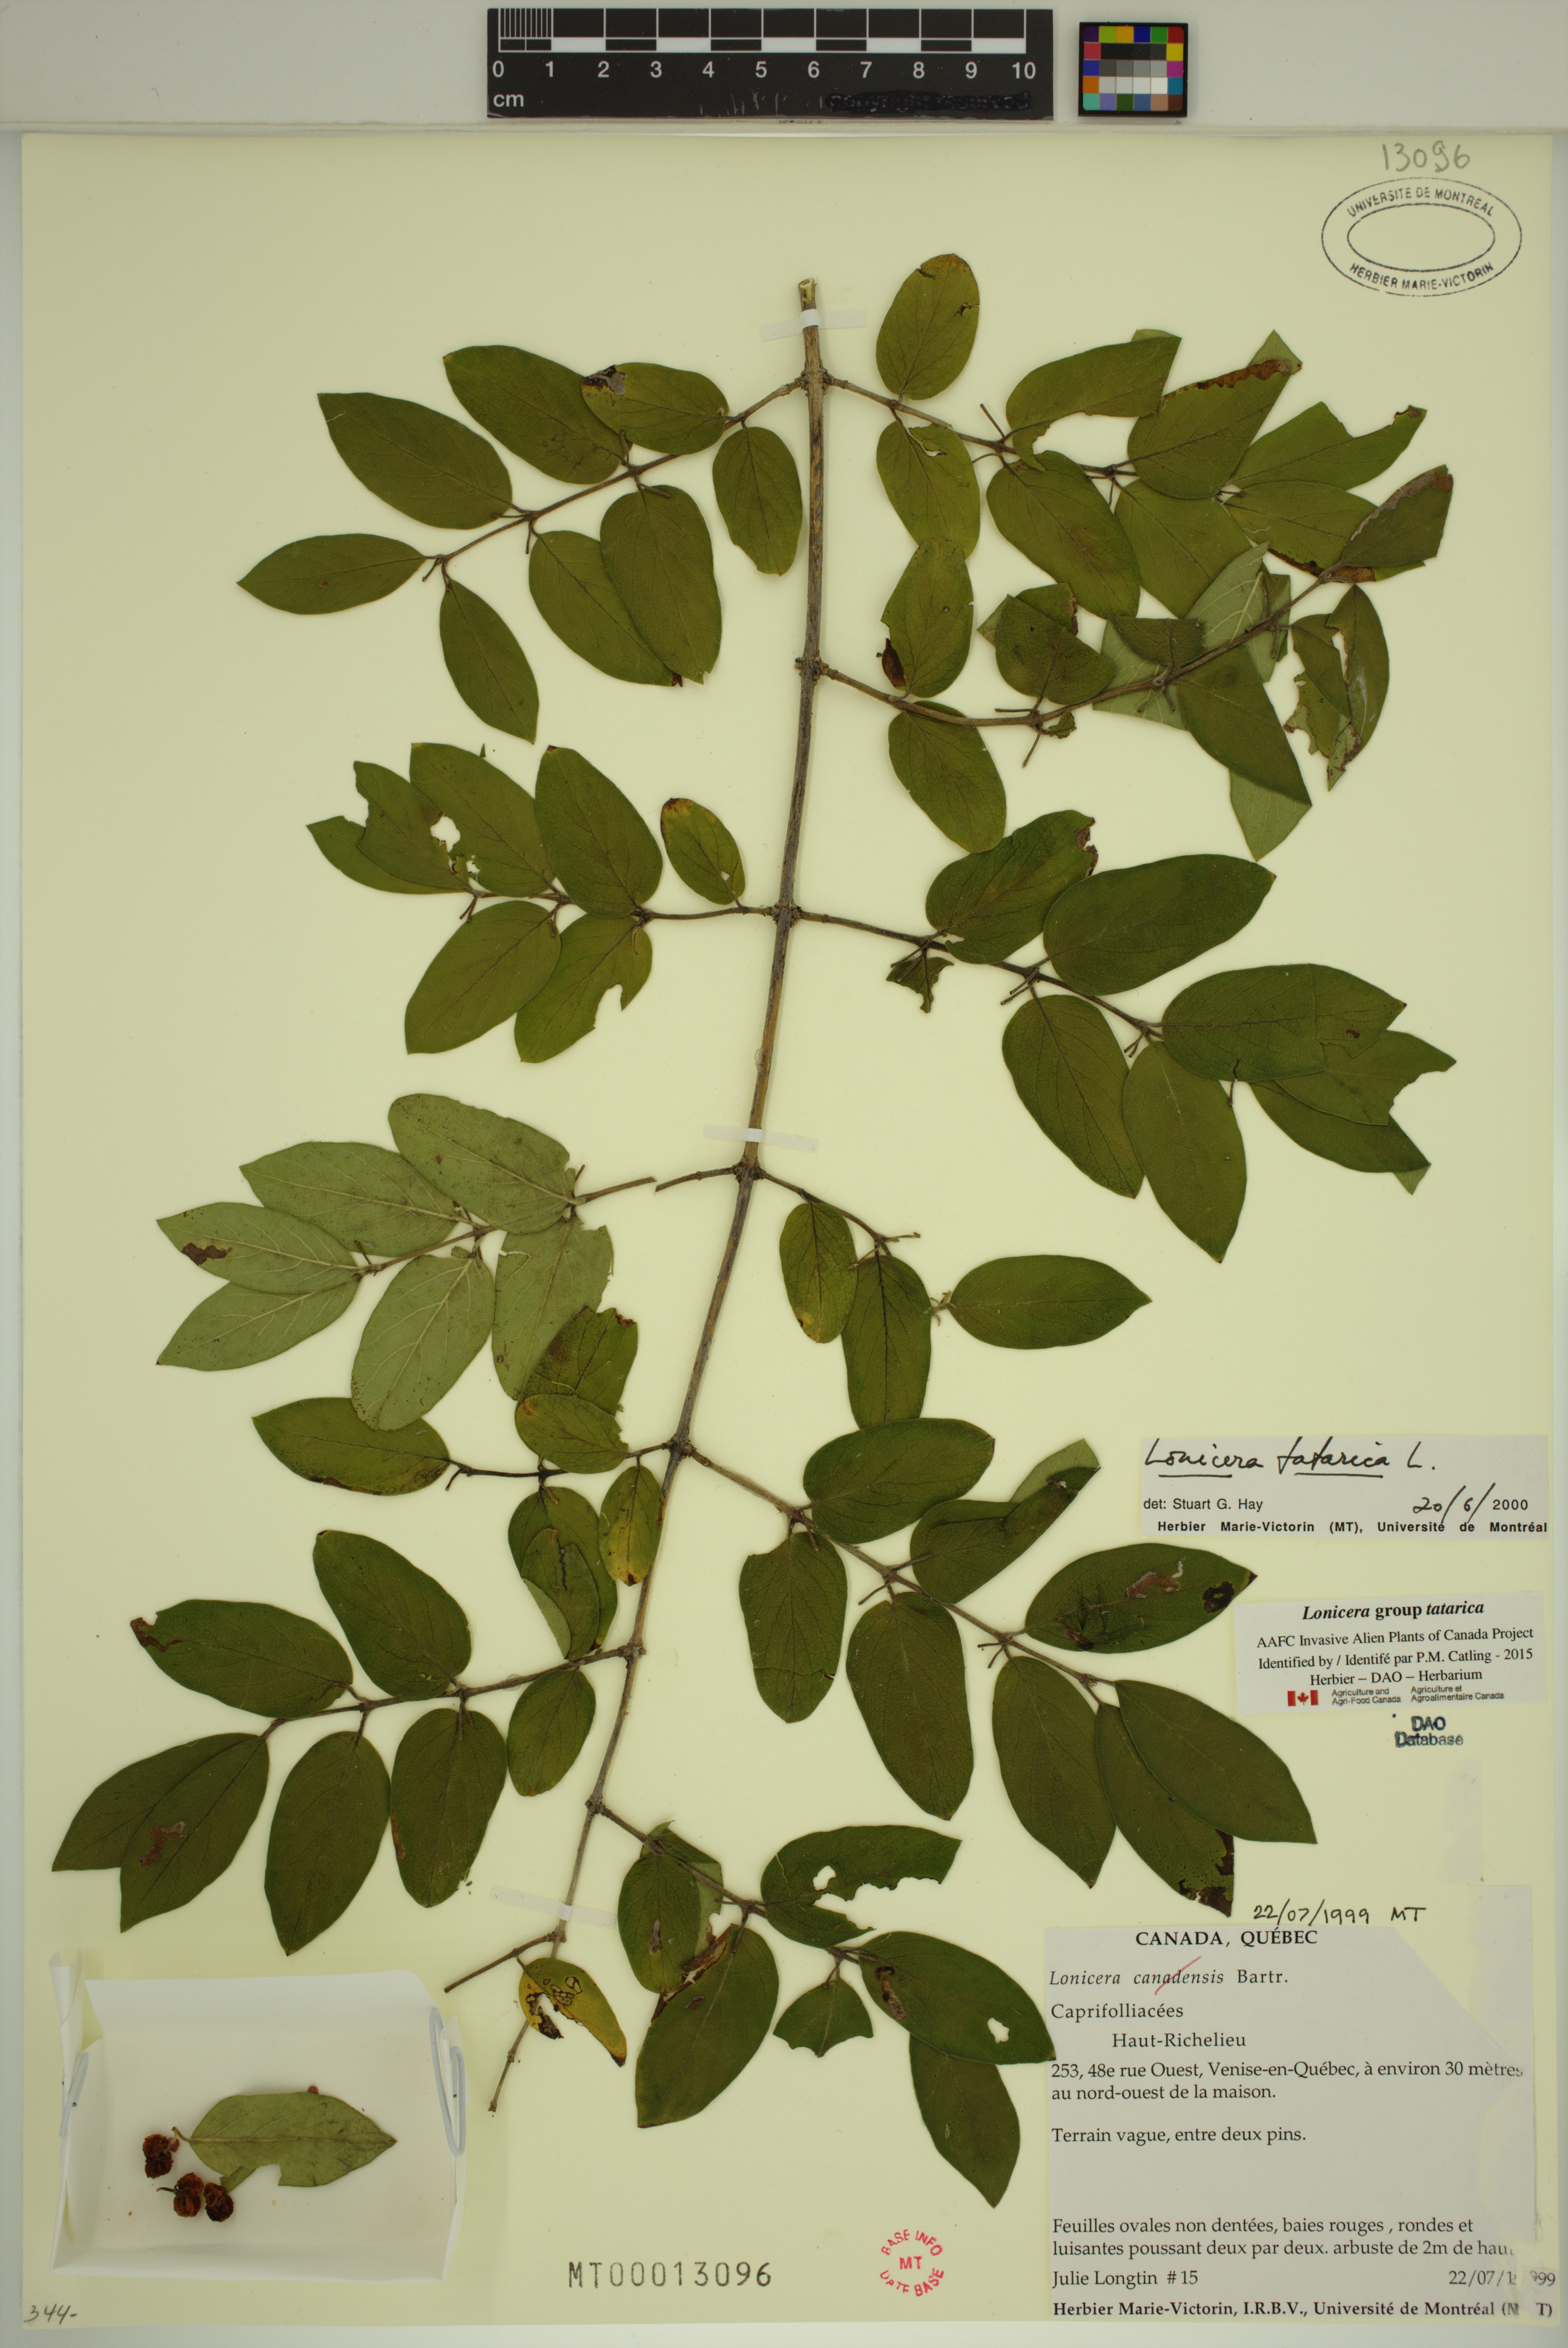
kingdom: Plantae
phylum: Tracheophyta
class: Magnoliopsida
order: Dipsacales
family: Caprifoliaceae
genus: Lonicera
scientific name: Lonicera tatarica
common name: Tatarian honeysuckle
